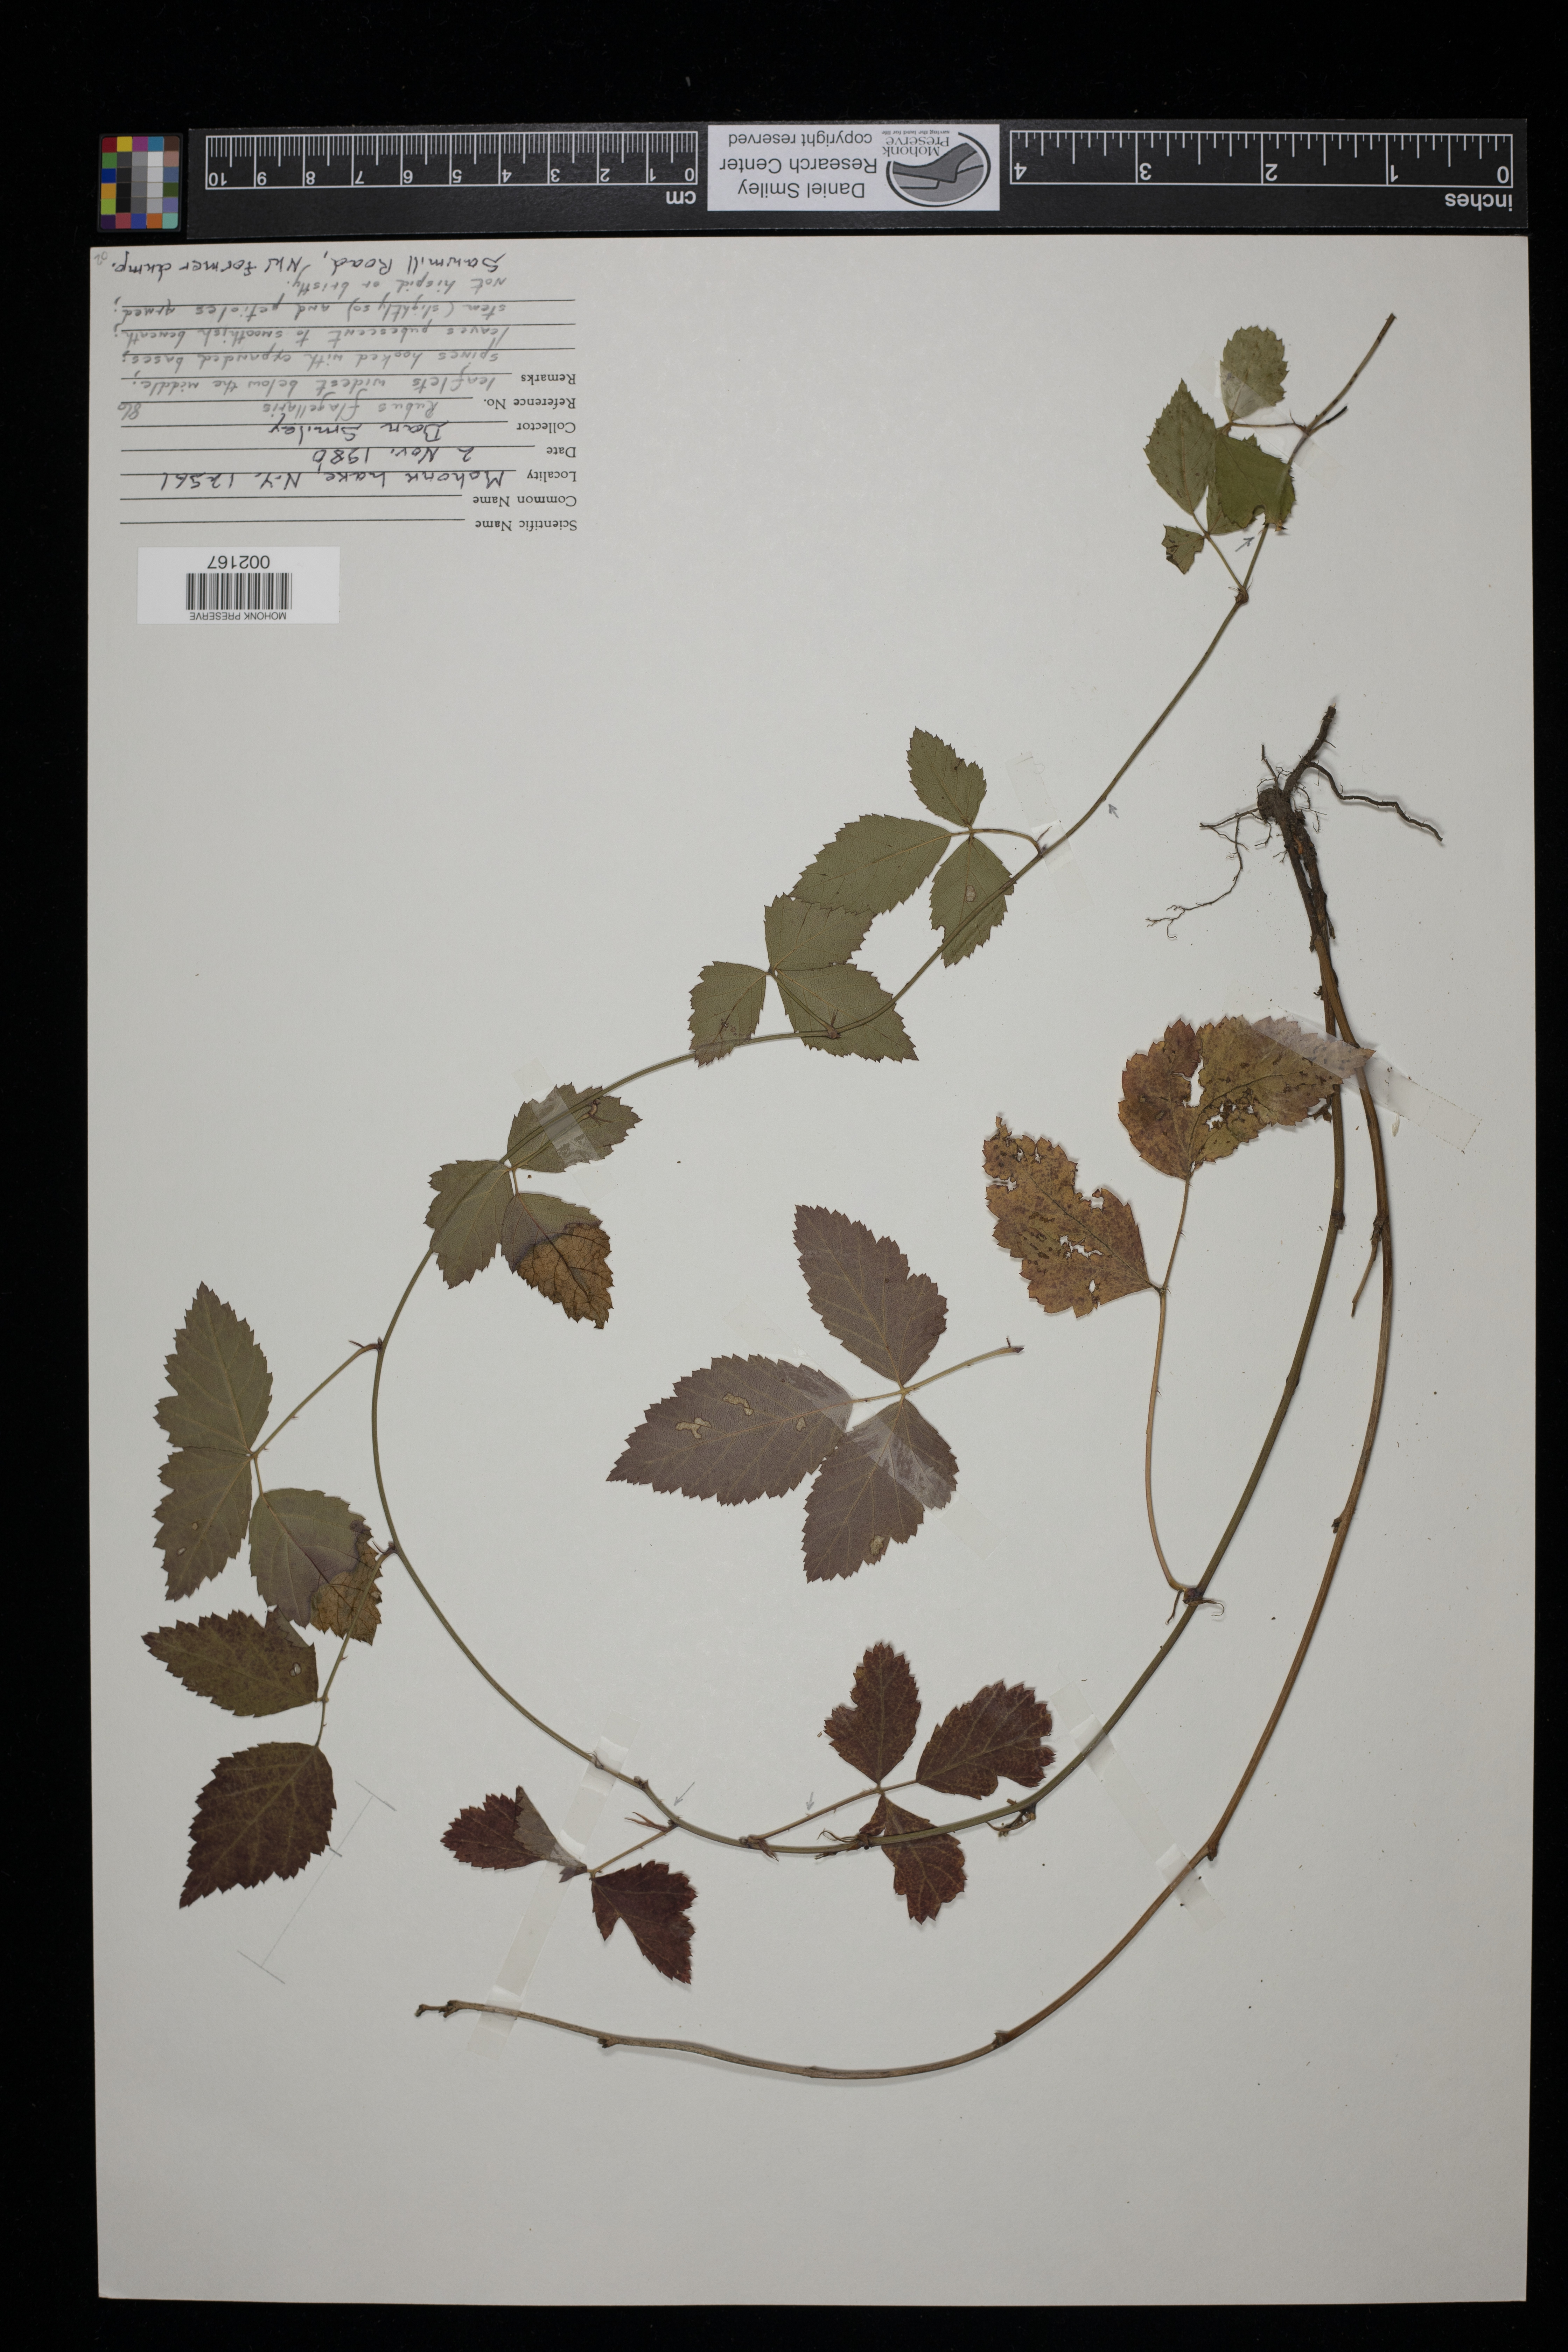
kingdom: Plantae
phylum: Tracheophyta
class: Magnoliopsida
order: Rosales
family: Rosaceae
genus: Rubus
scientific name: Rubus flagellaris
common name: American dewberry
